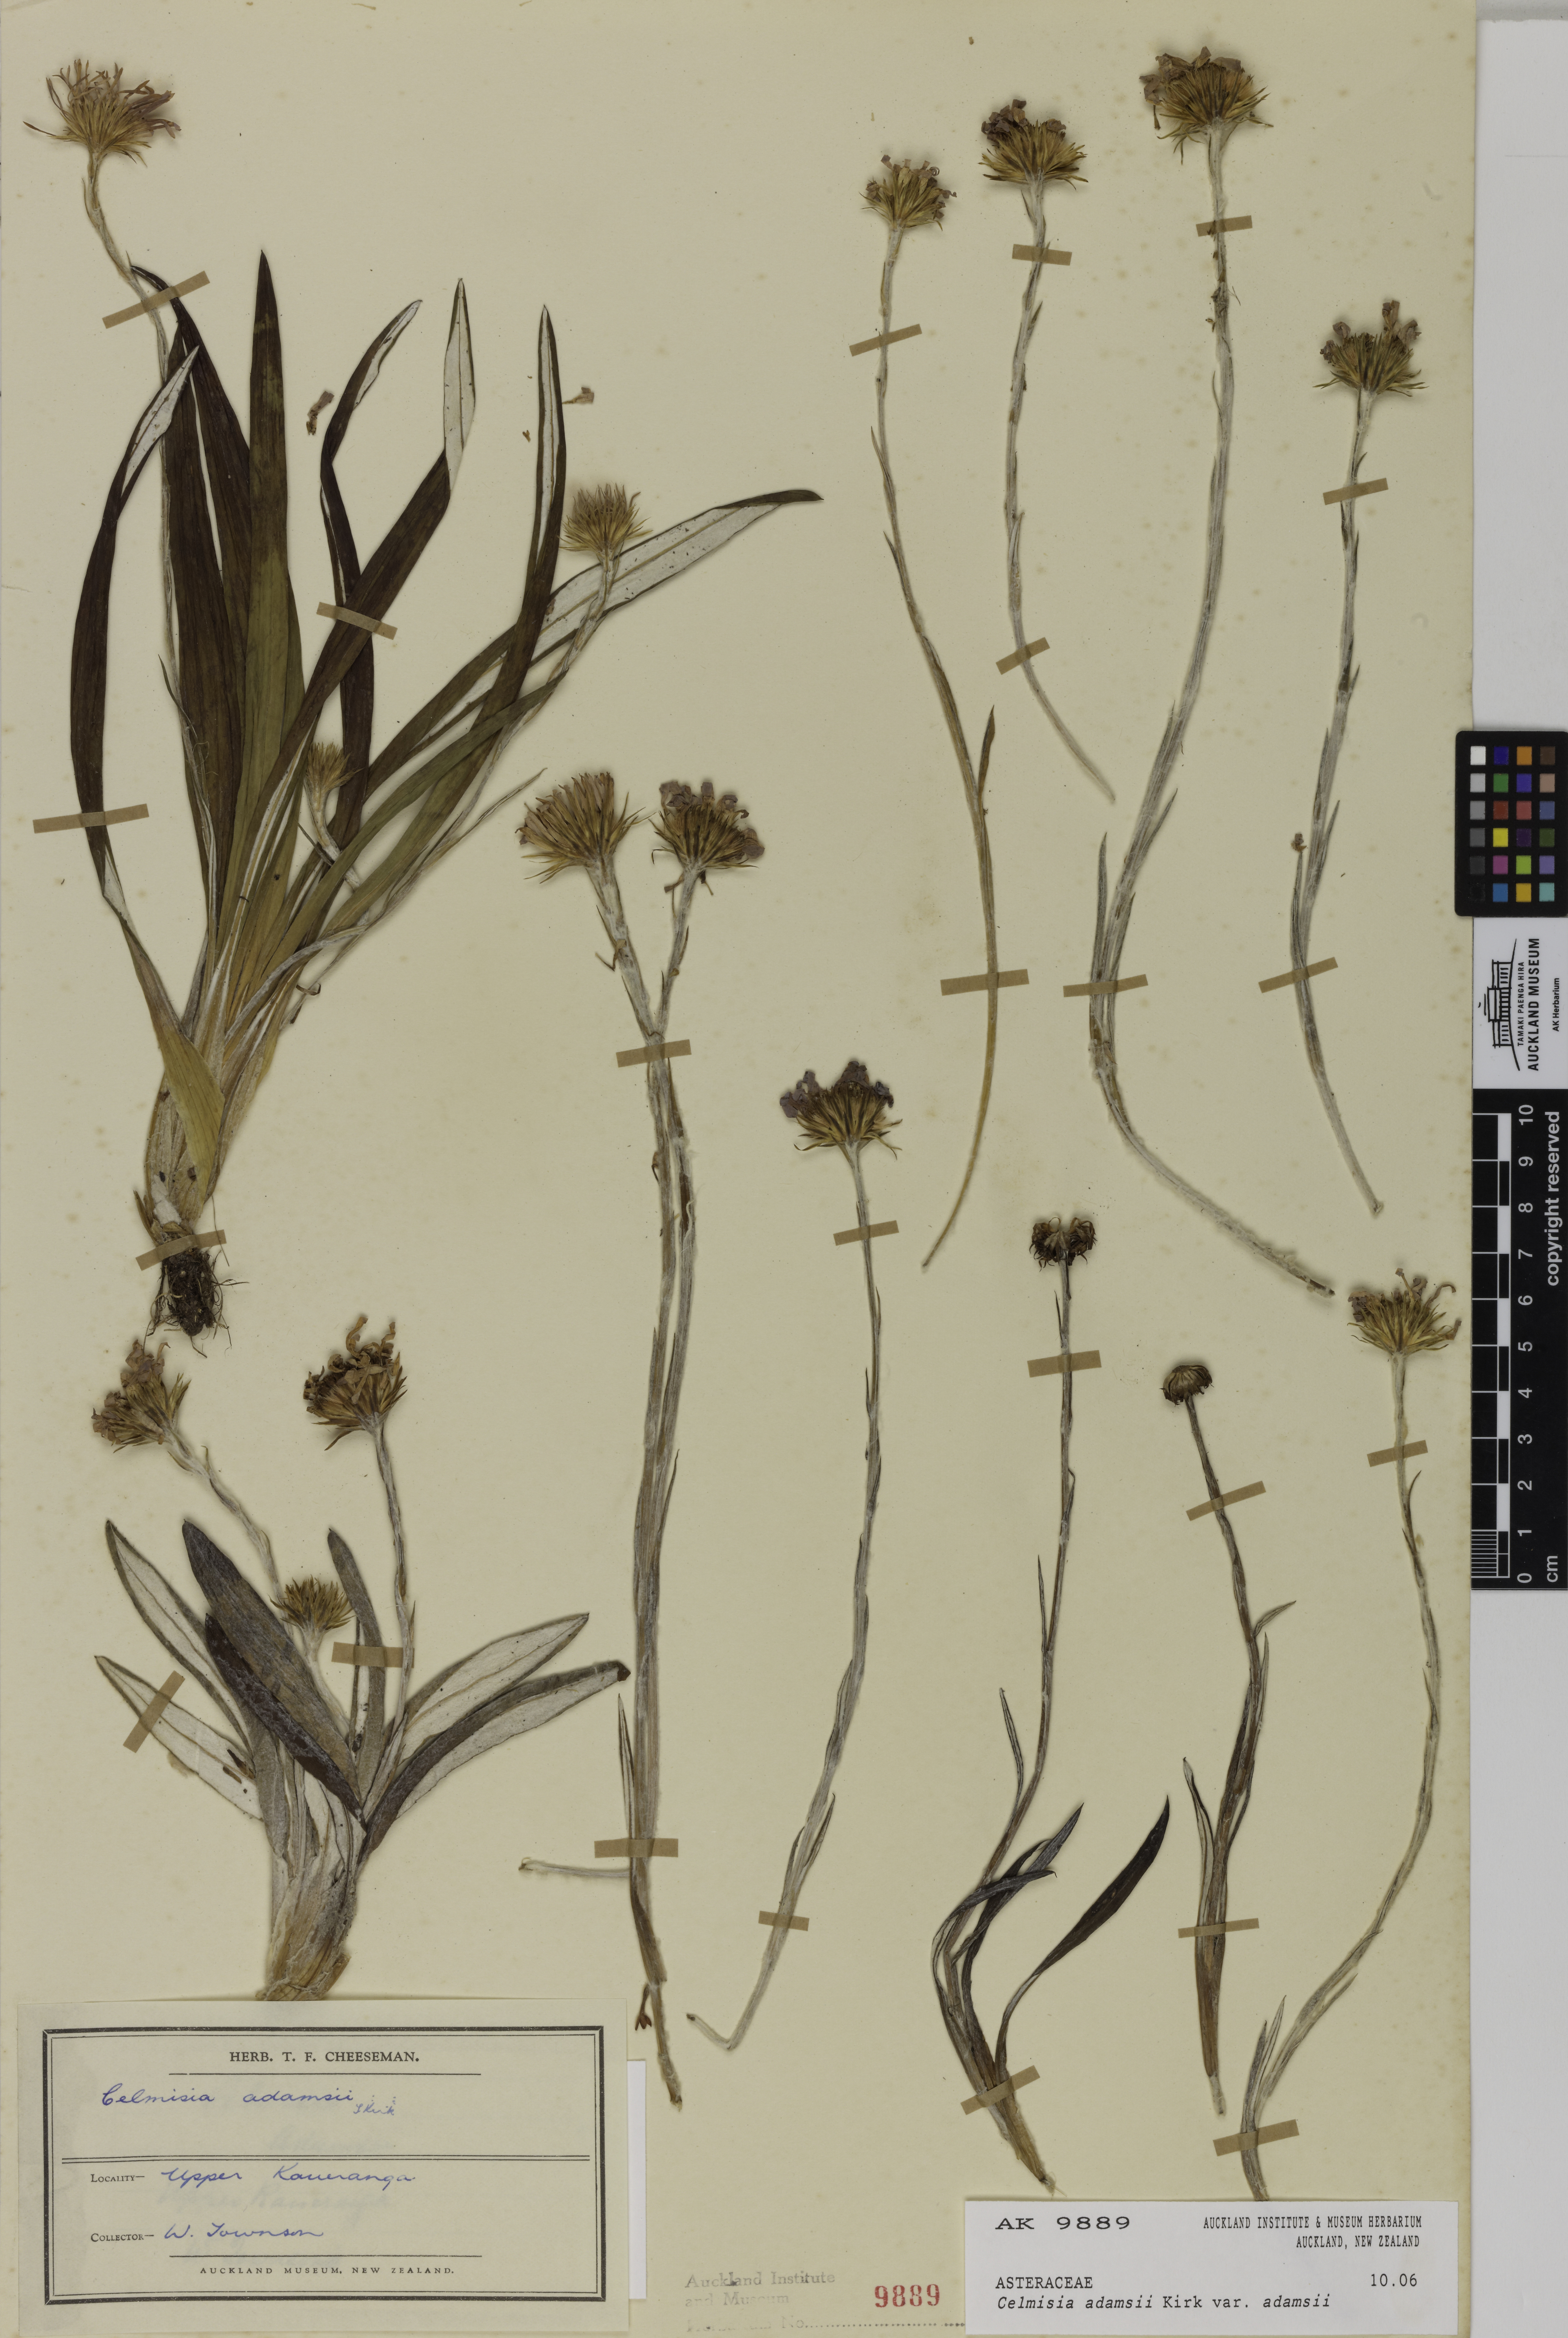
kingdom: Plantae
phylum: Tracheophyta
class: Magnoliopsida
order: Asterales
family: Asteraceae
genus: Celmisia
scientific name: Celmisia adamsii
